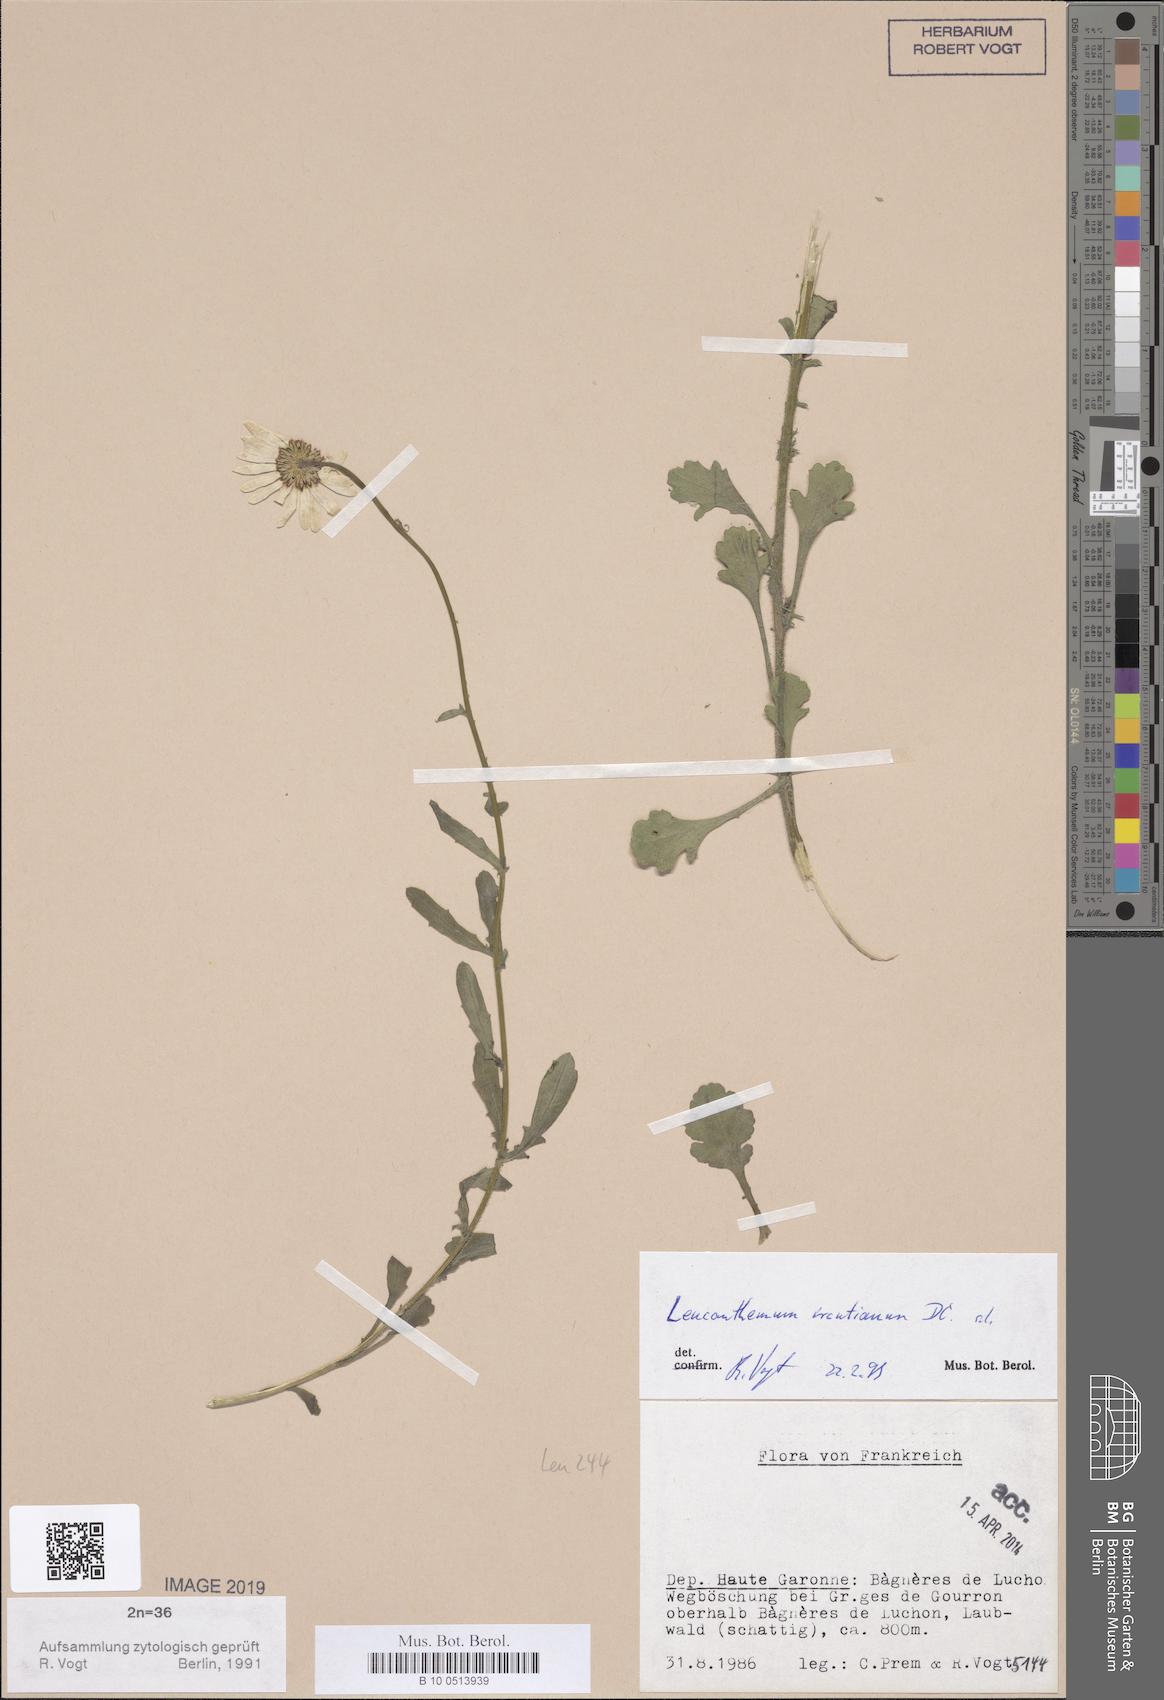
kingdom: Plantae
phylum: Tracheophyta
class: Magnoliopsida
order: Asterales
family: Asteraceae
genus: Leucanthemum
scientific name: Leucanthemum ircutianum
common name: Daisy
